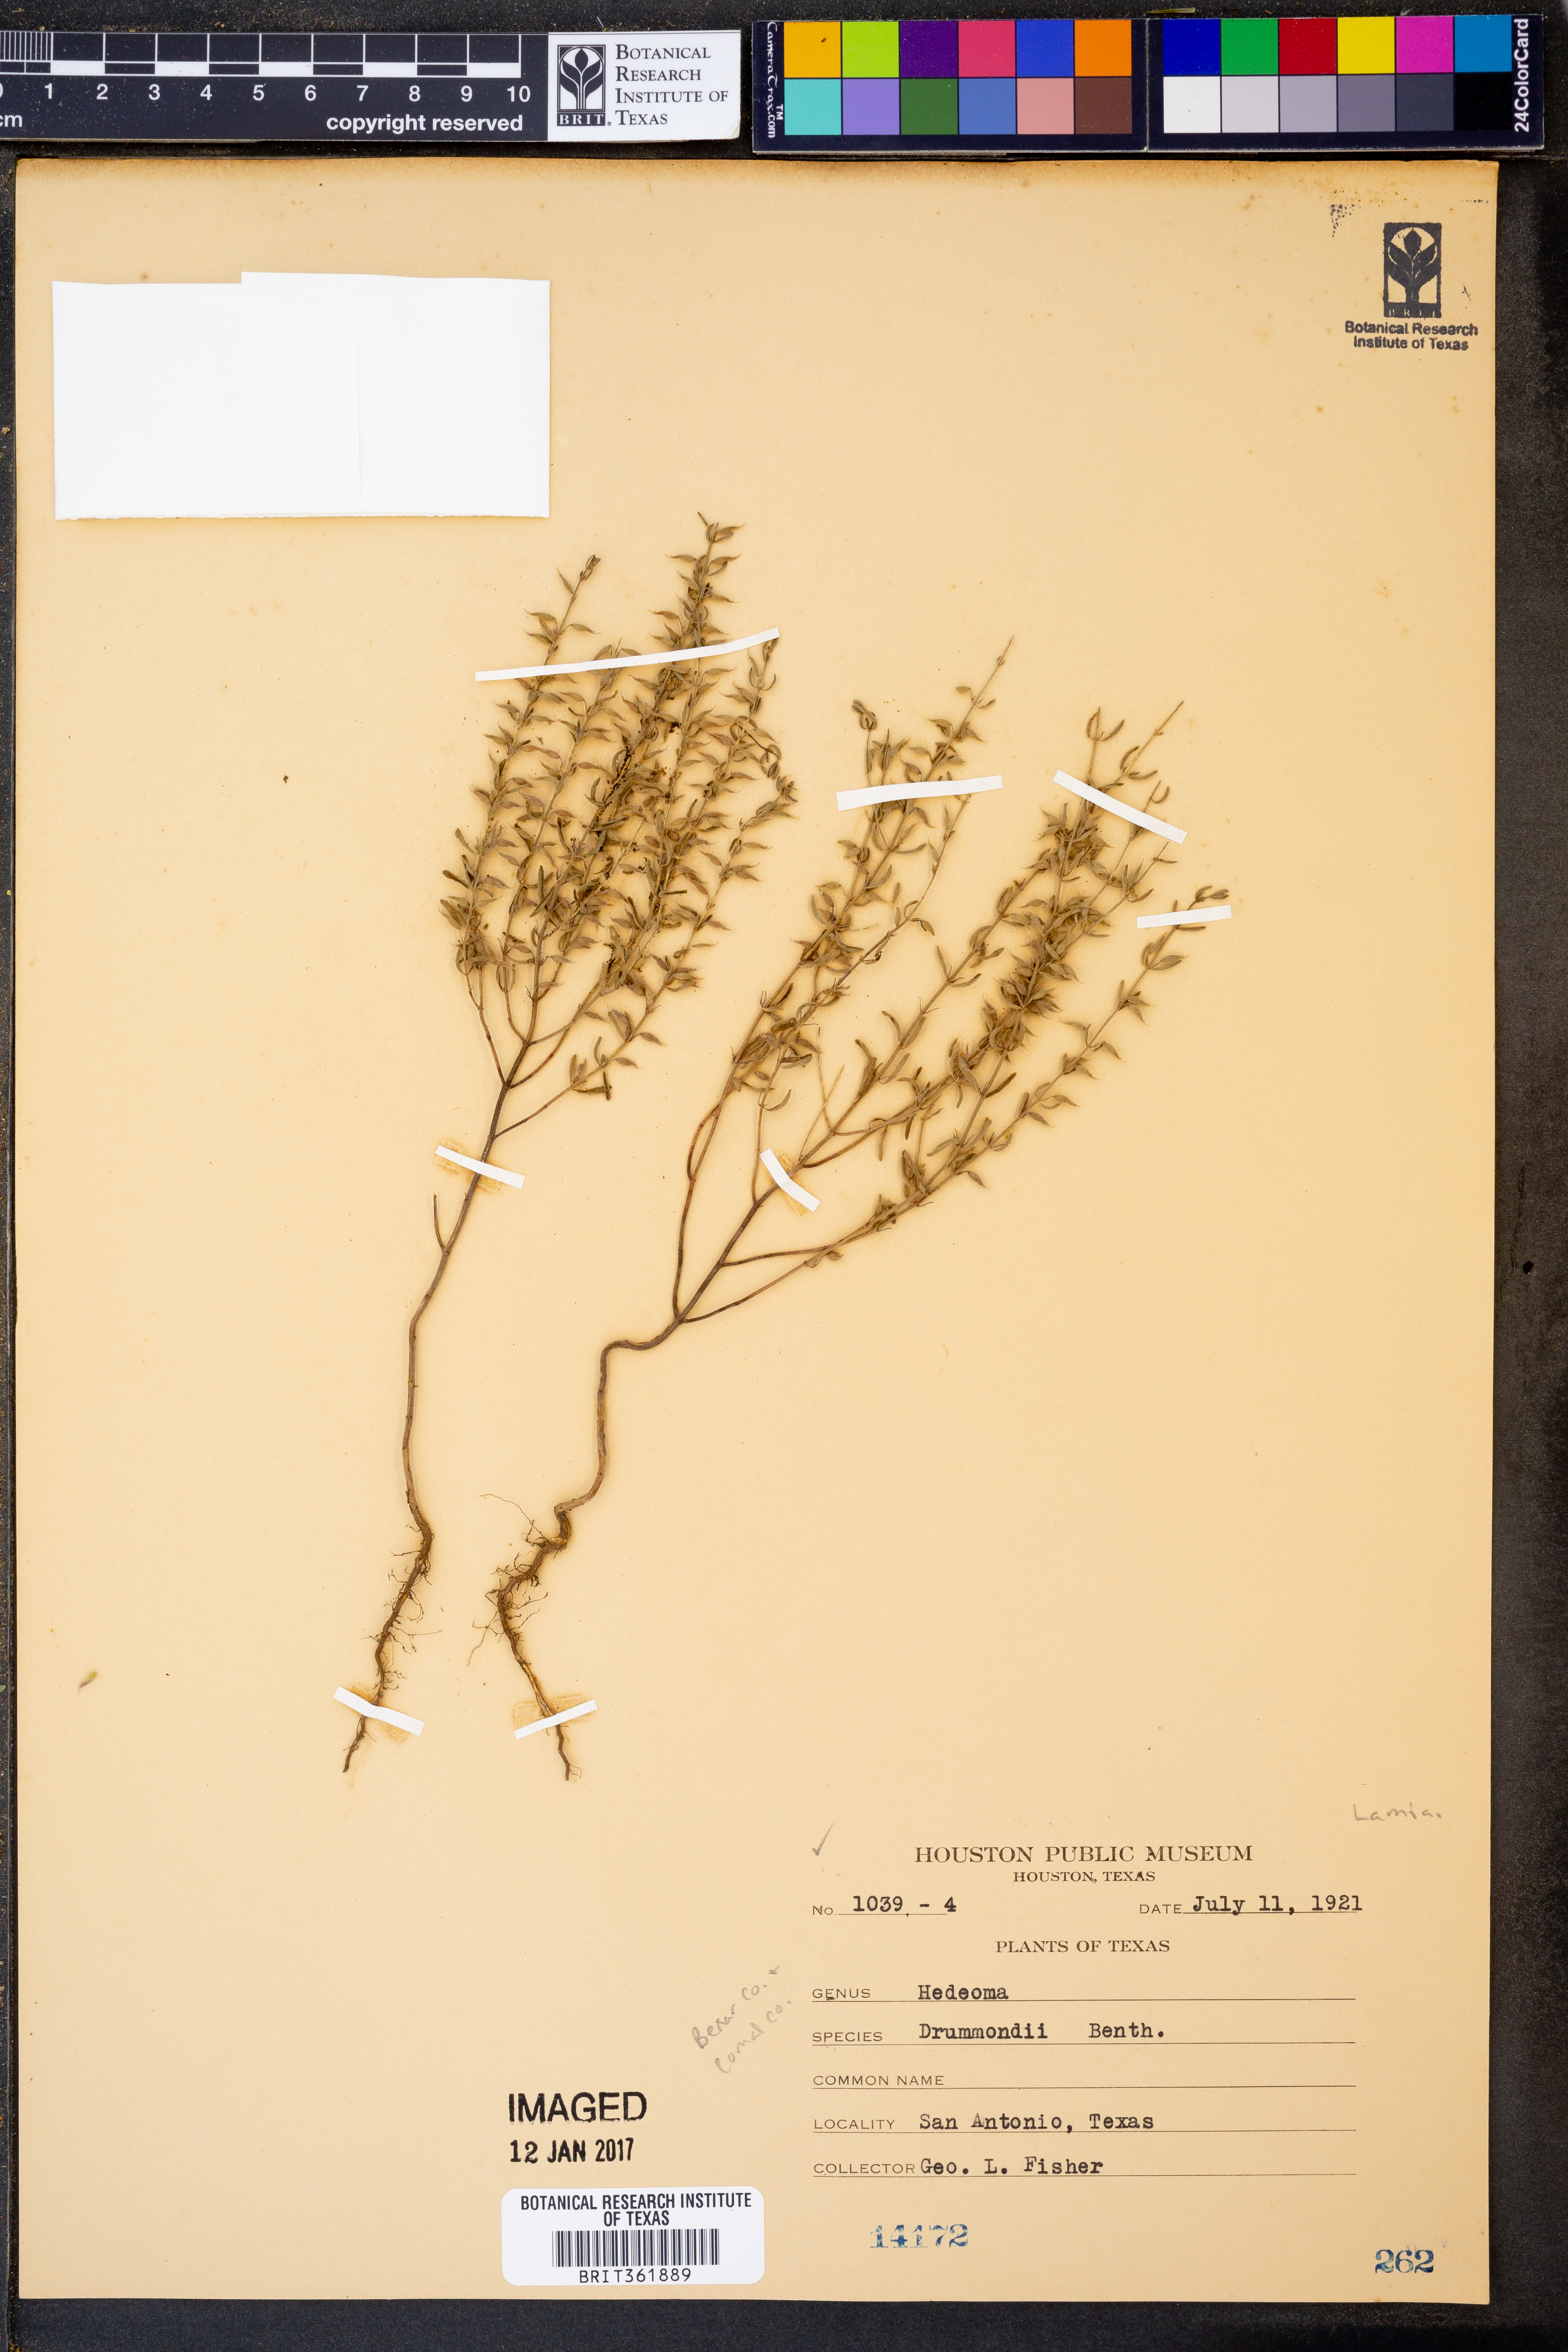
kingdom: Plantae
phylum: Tracheophyta
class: Magnoliopsida
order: Lamiales
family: Lamiaceae
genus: Hedeoma
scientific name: Hedeoma drummondii
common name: New mexico pennyroyal
